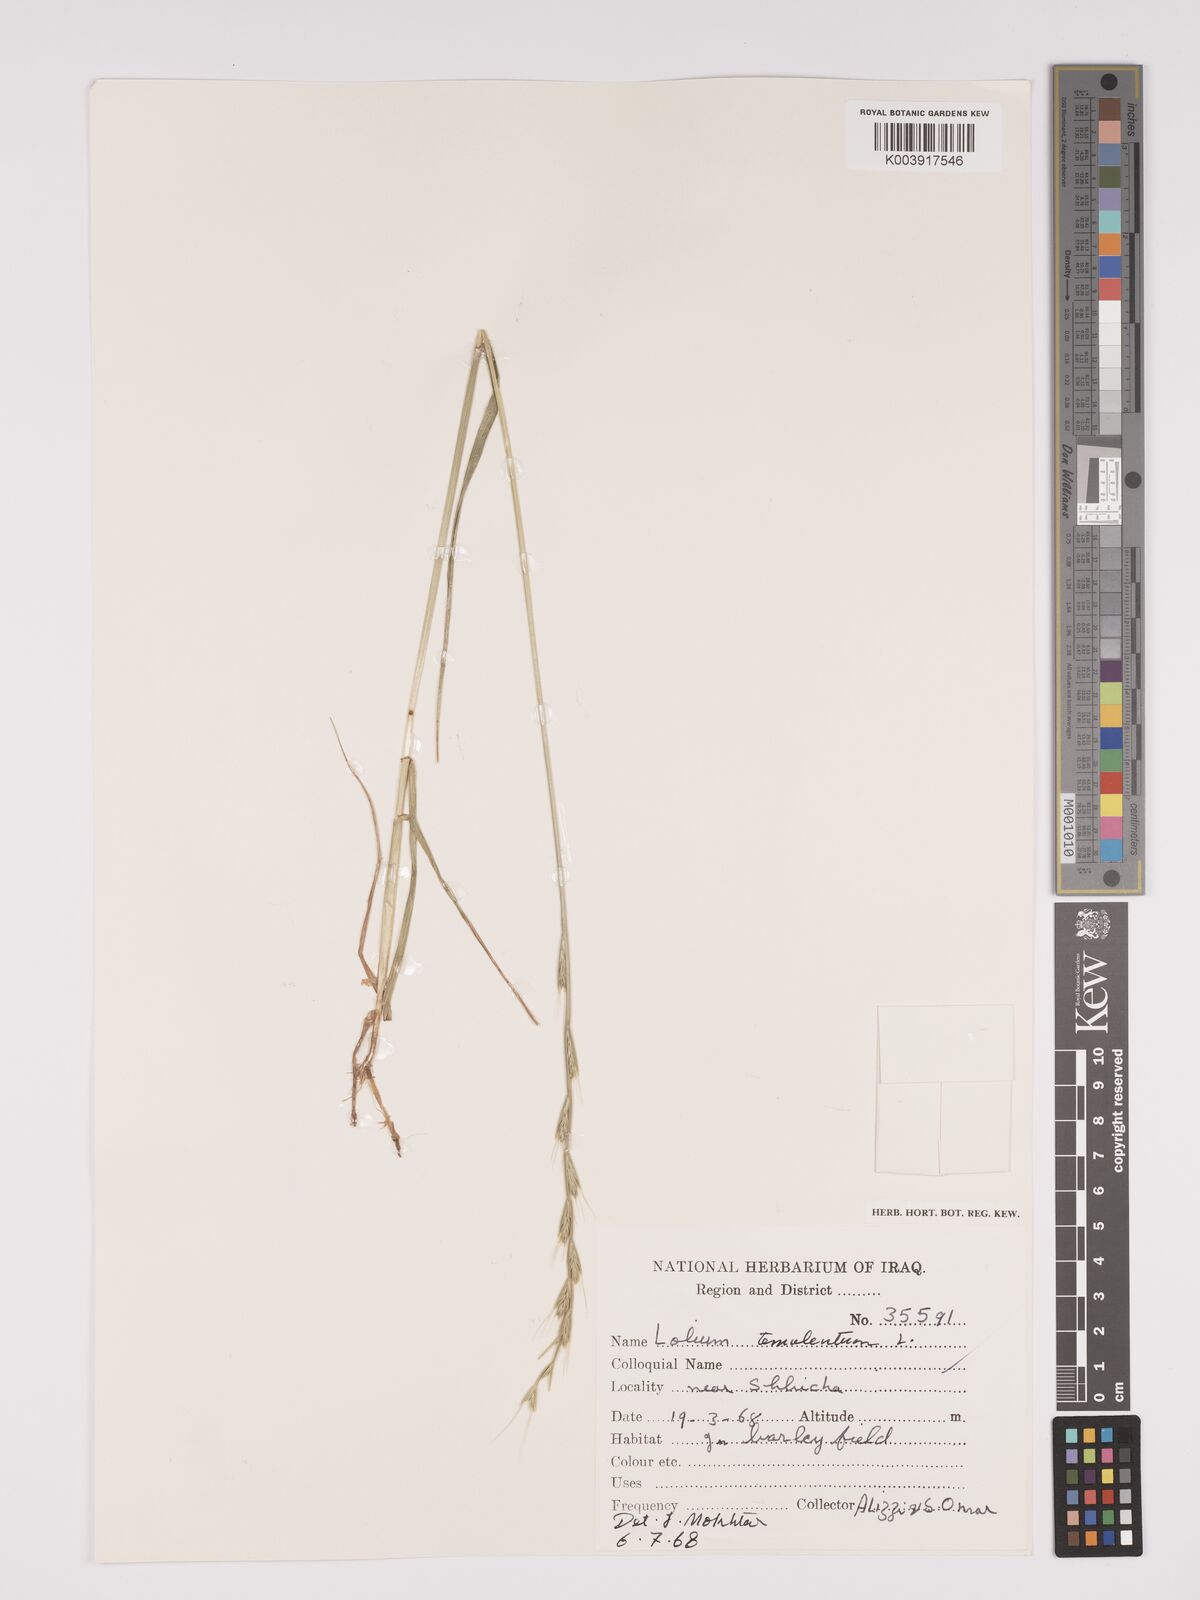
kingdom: Plantae
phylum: Tracheophyta
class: Liliopsida
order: Poales
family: Poaceae
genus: Lolium
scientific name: Lolium temulentum
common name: Darnel
